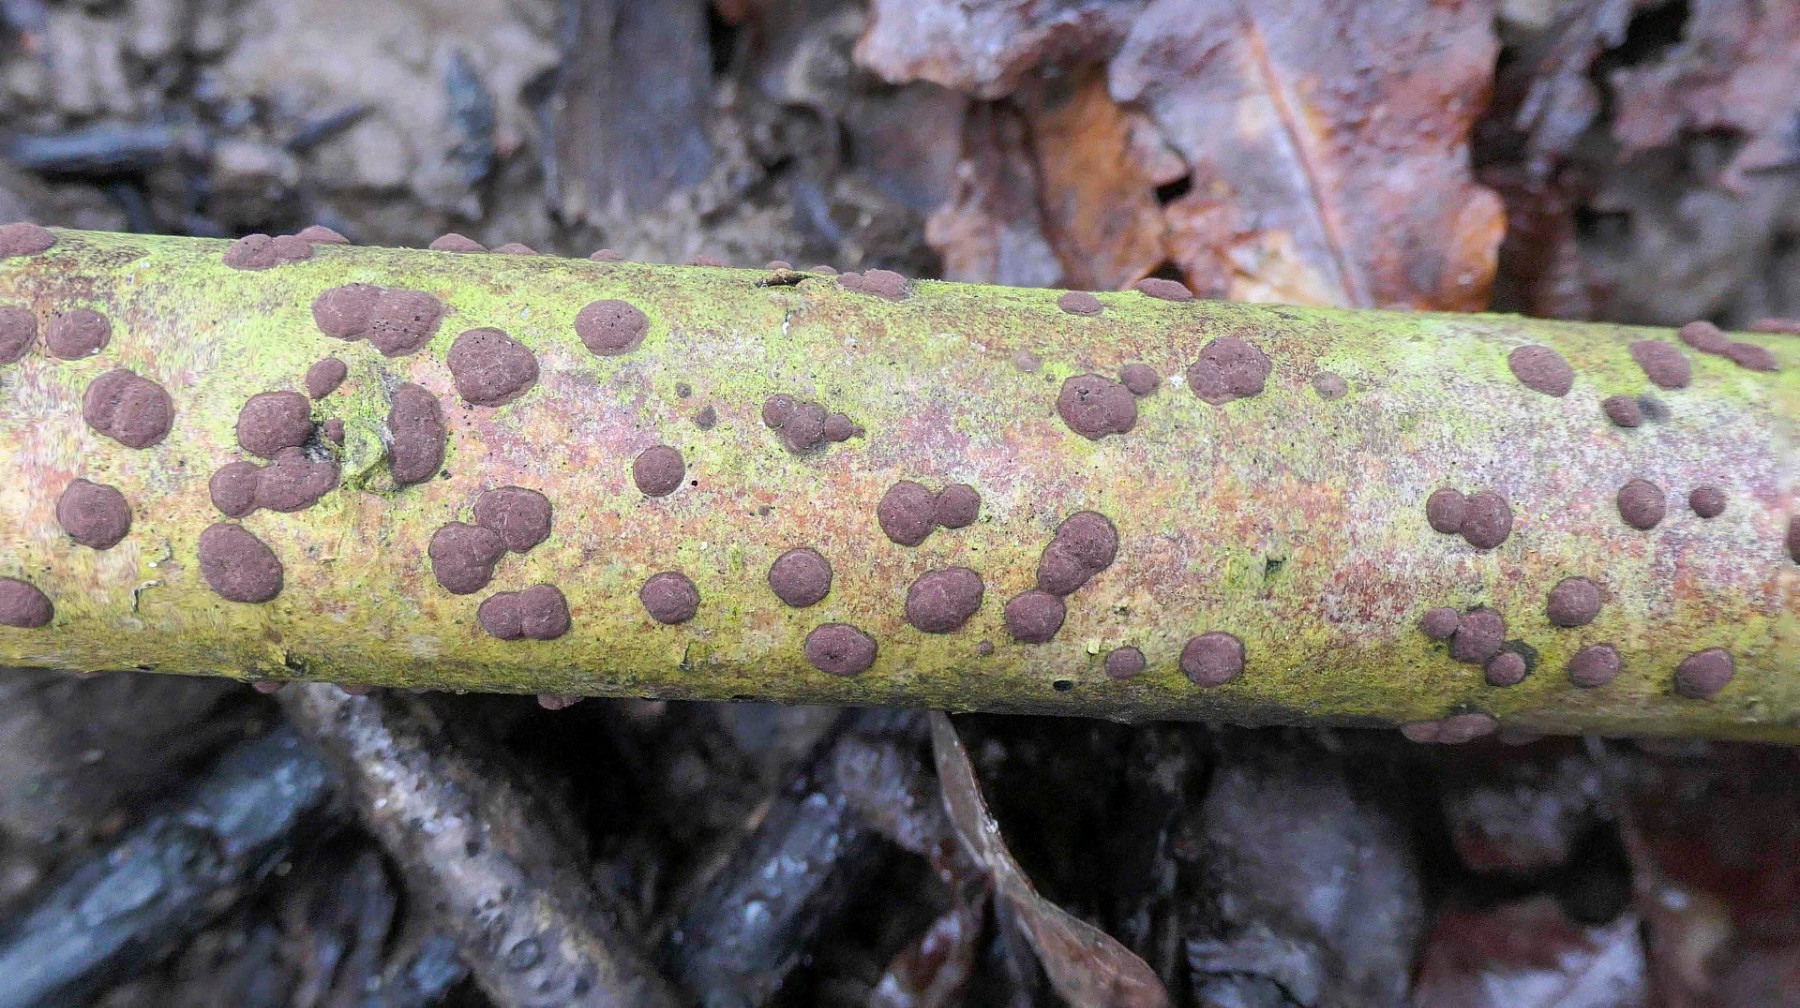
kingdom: Fungi
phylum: Ascomycota
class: Sordariomycetes
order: Xylariales
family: Hypoxylaceae
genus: Hypoxylon
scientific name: Hypoxylon fuscum
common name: kegleformet kulbær
